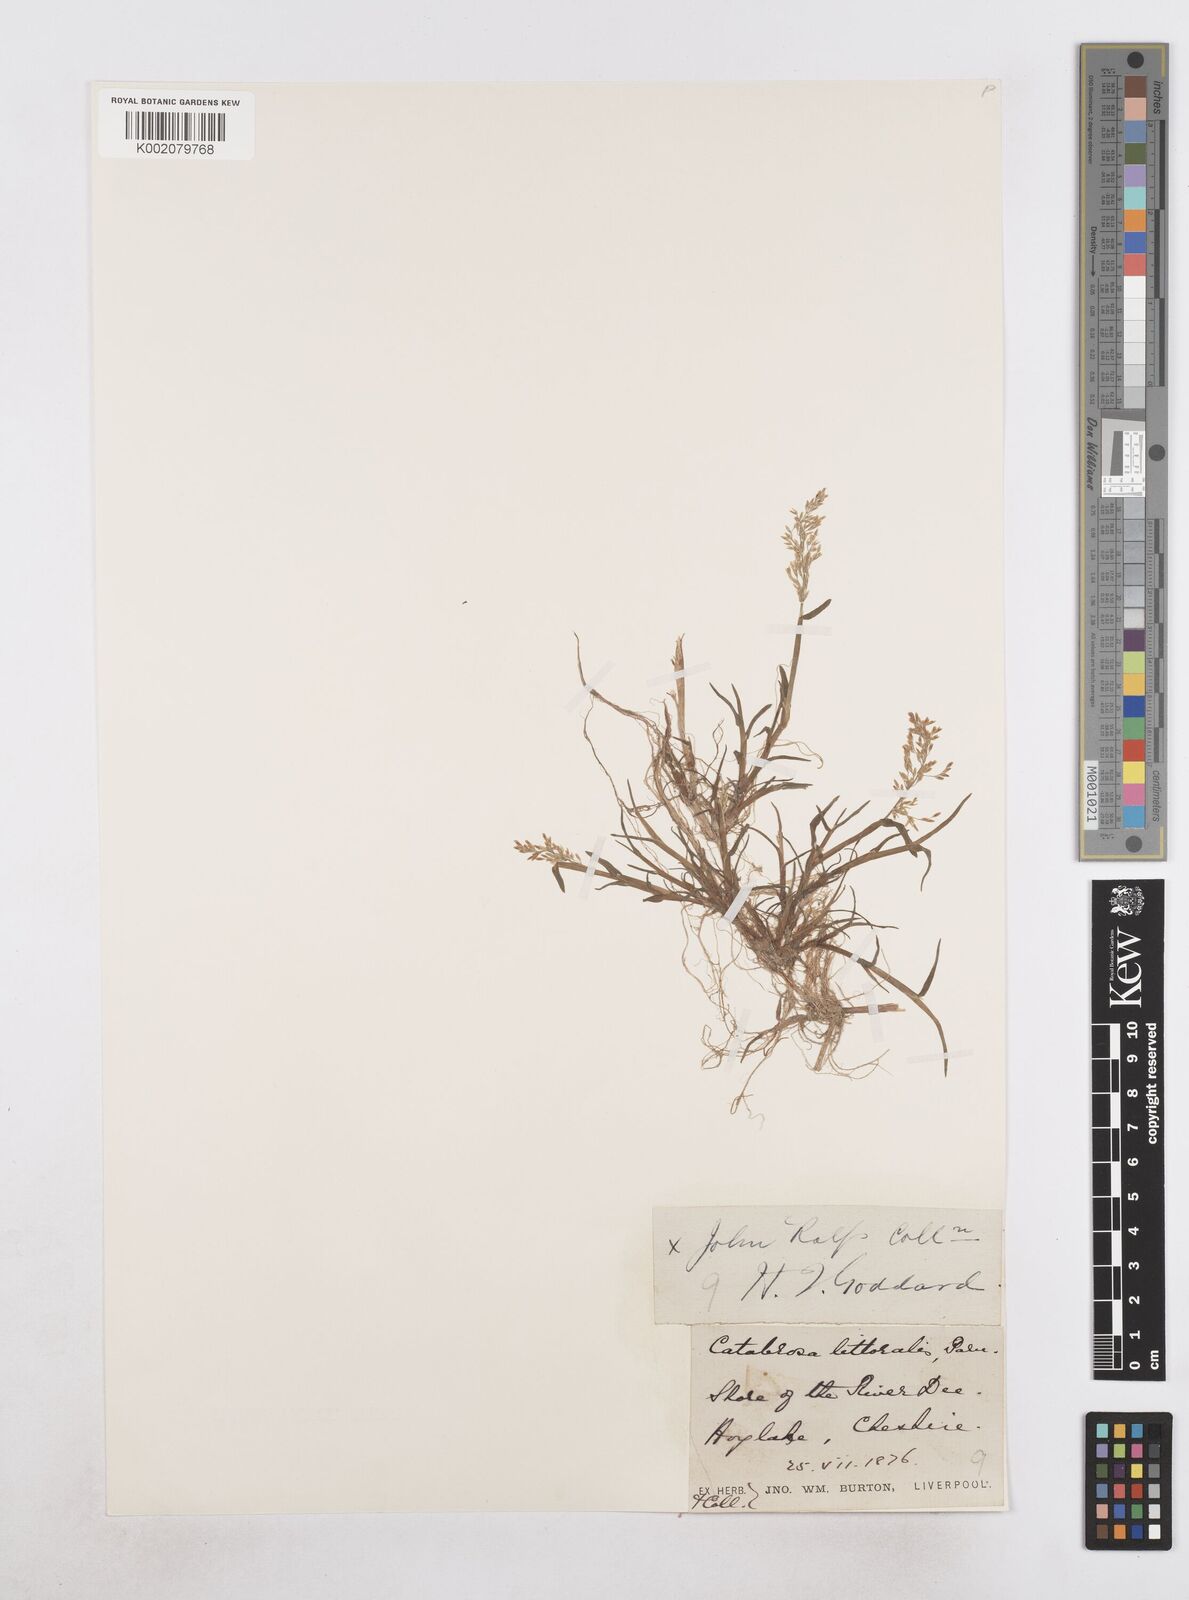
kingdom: Plantae
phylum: Tracheophyta
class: Liliopsida
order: Poales
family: Poaceae
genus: Catabrosa
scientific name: Catabrosa aquatica
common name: Whorl-grass
